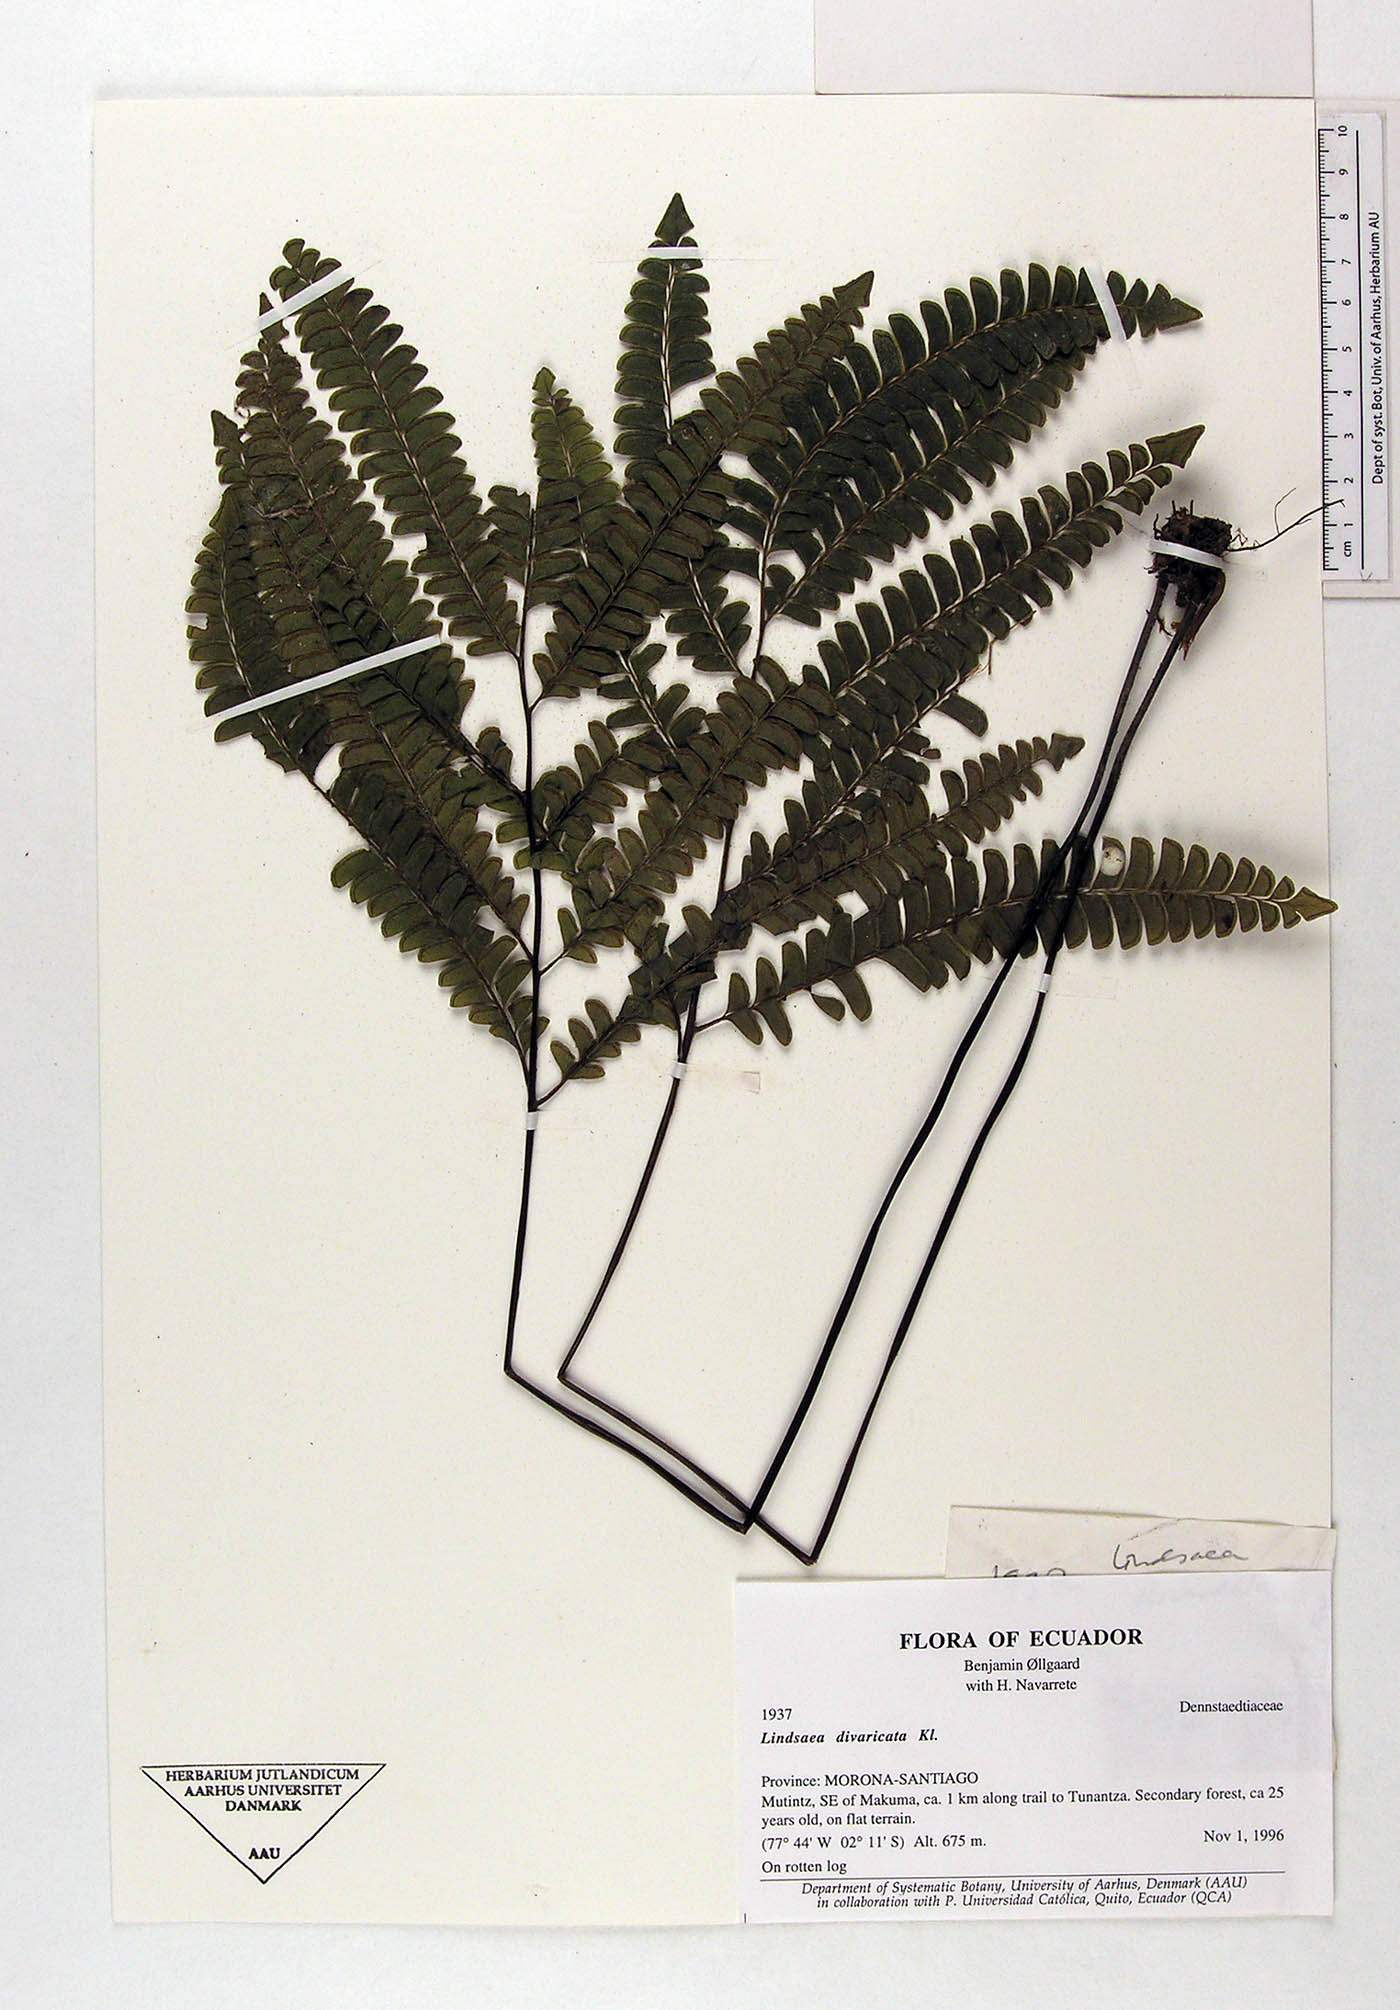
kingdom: Plantae
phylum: Tracheophyta
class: Polypodiopsida
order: Polypodiales
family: Lindsaeaceae
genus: Lindsaea
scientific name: Lindsaea divaricata
